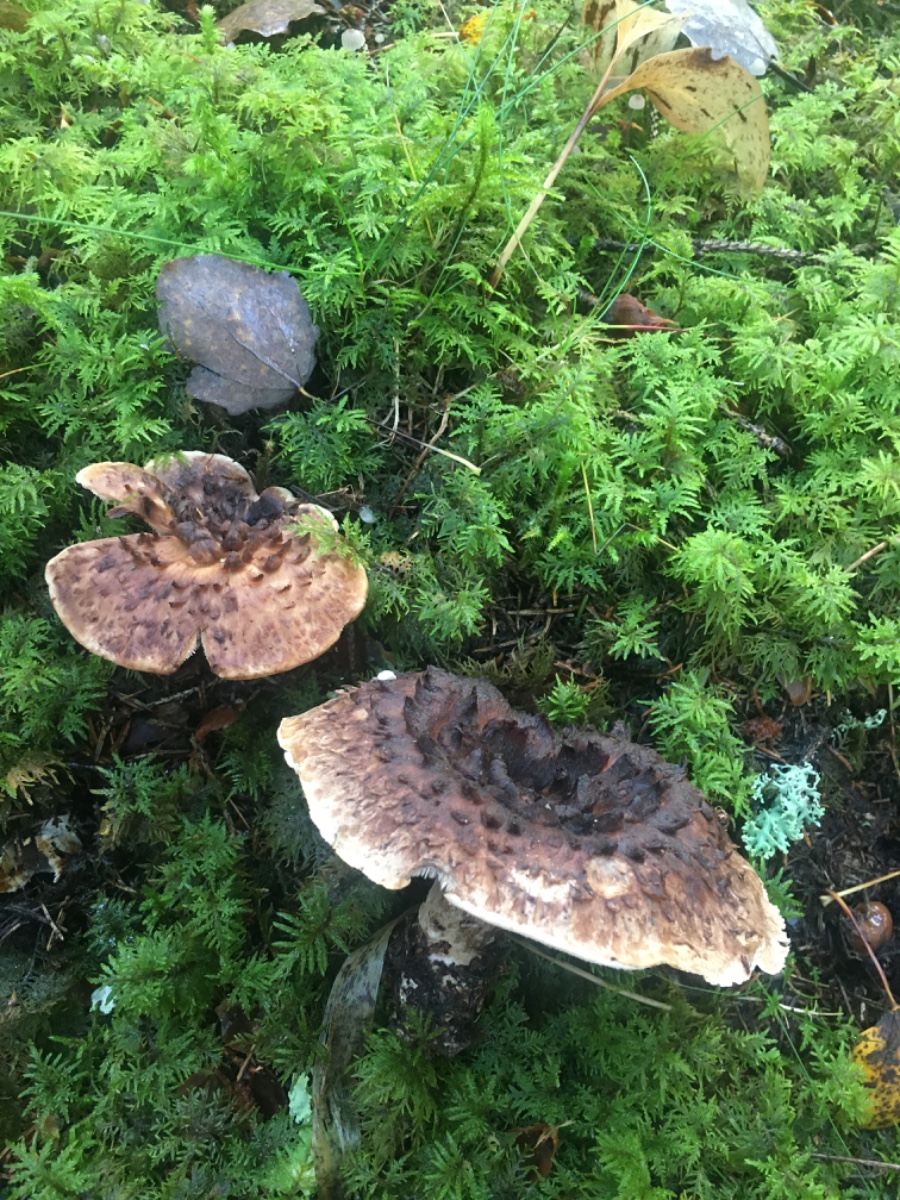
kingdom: Fungi
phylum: Basidiomycota
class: Agaricomycetes
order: Thelephorales
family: Bankeraceae
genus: Sarcodon
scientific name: Sarcodon imbricatus
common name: skællet kødpigsvamp
